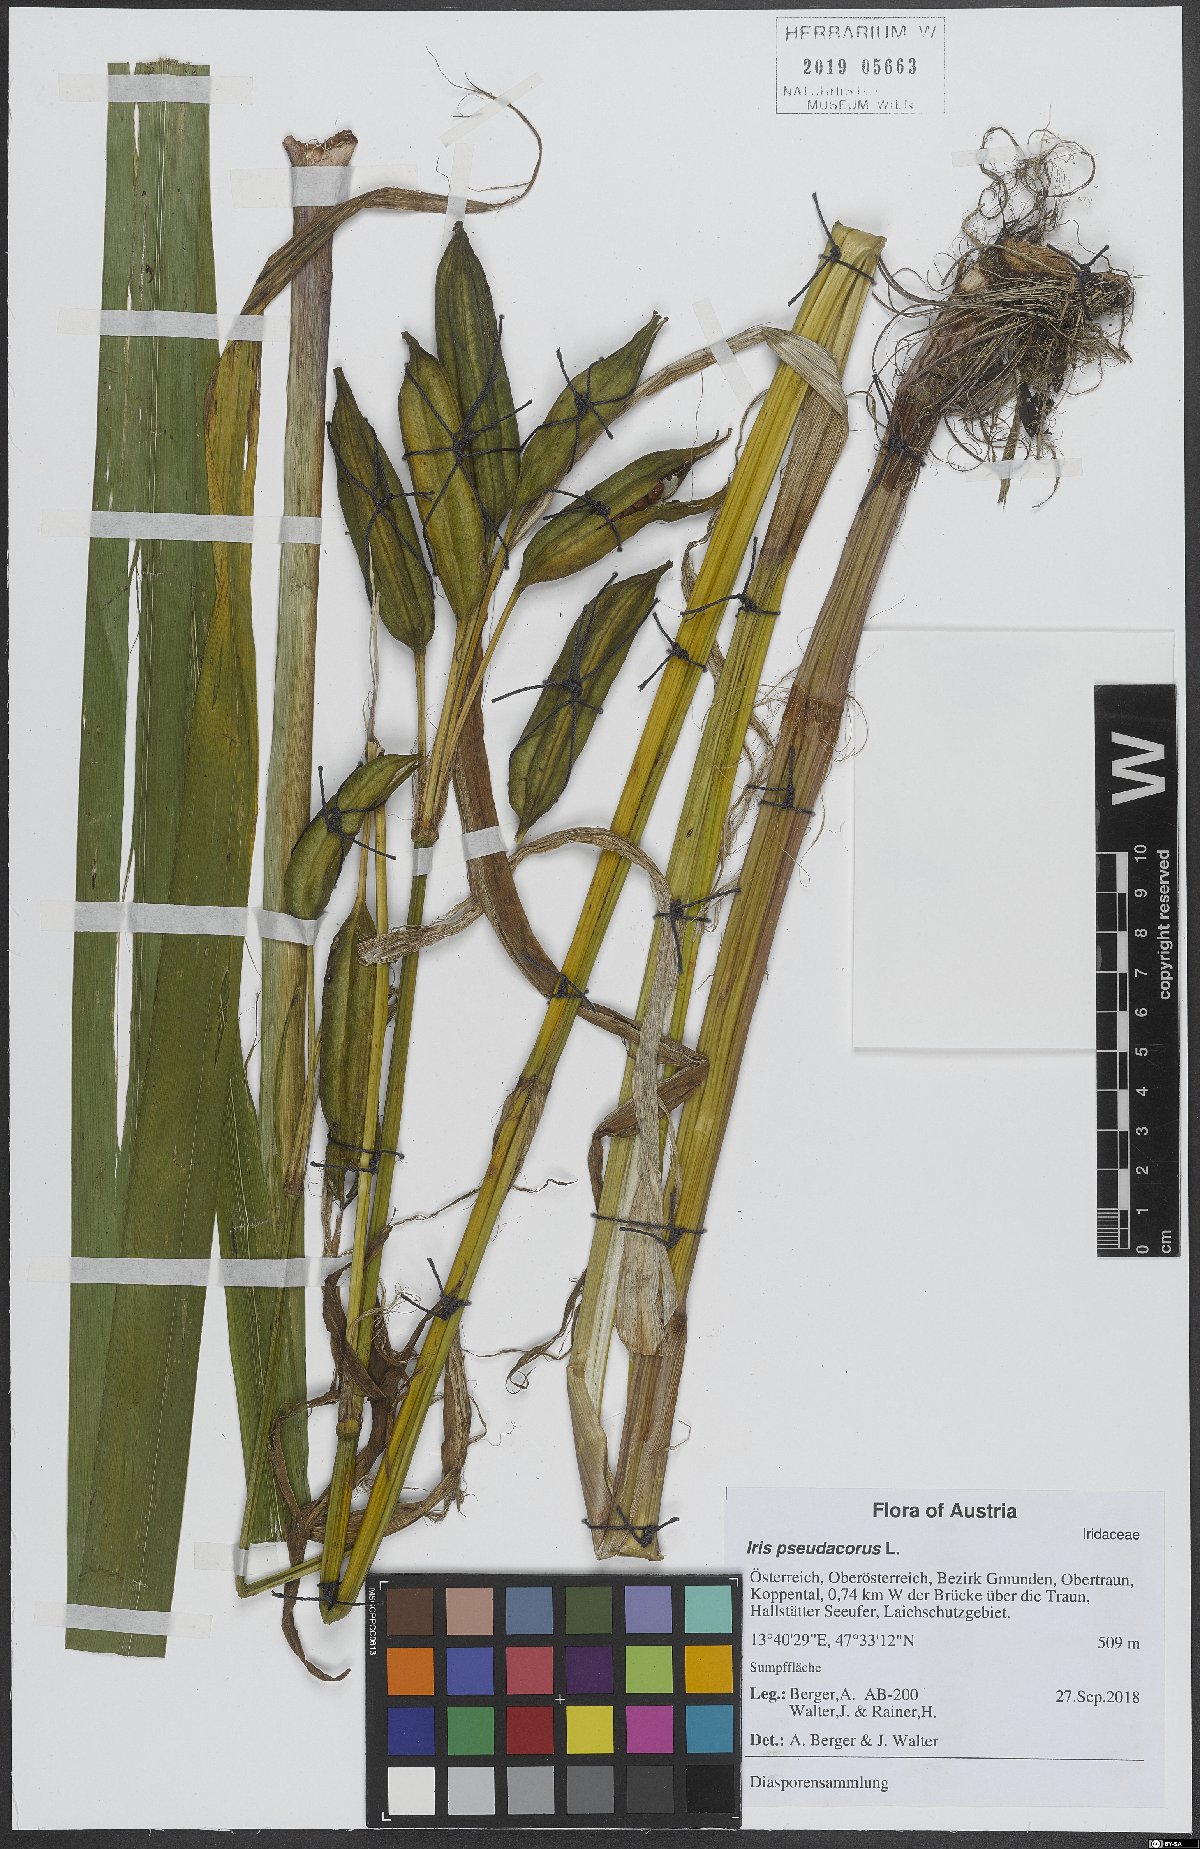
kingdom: Plantae
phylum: Tracheophyta
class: Liliopsida
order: Asparagales
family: Iridaceae
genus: Iris
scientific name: Iris pseudacorus
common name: Yellow flag
